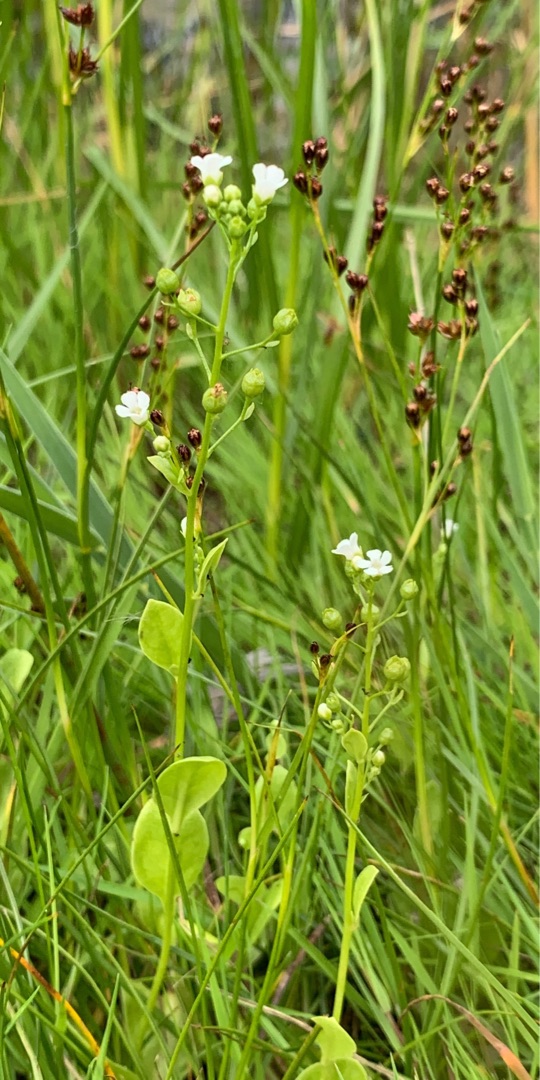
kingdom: Plantae
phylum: Tracheophyta
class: Magnoliopsida
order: Ericales
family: Primulaceae
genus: Samolus
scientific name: Samolus valerandi
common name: Samel
